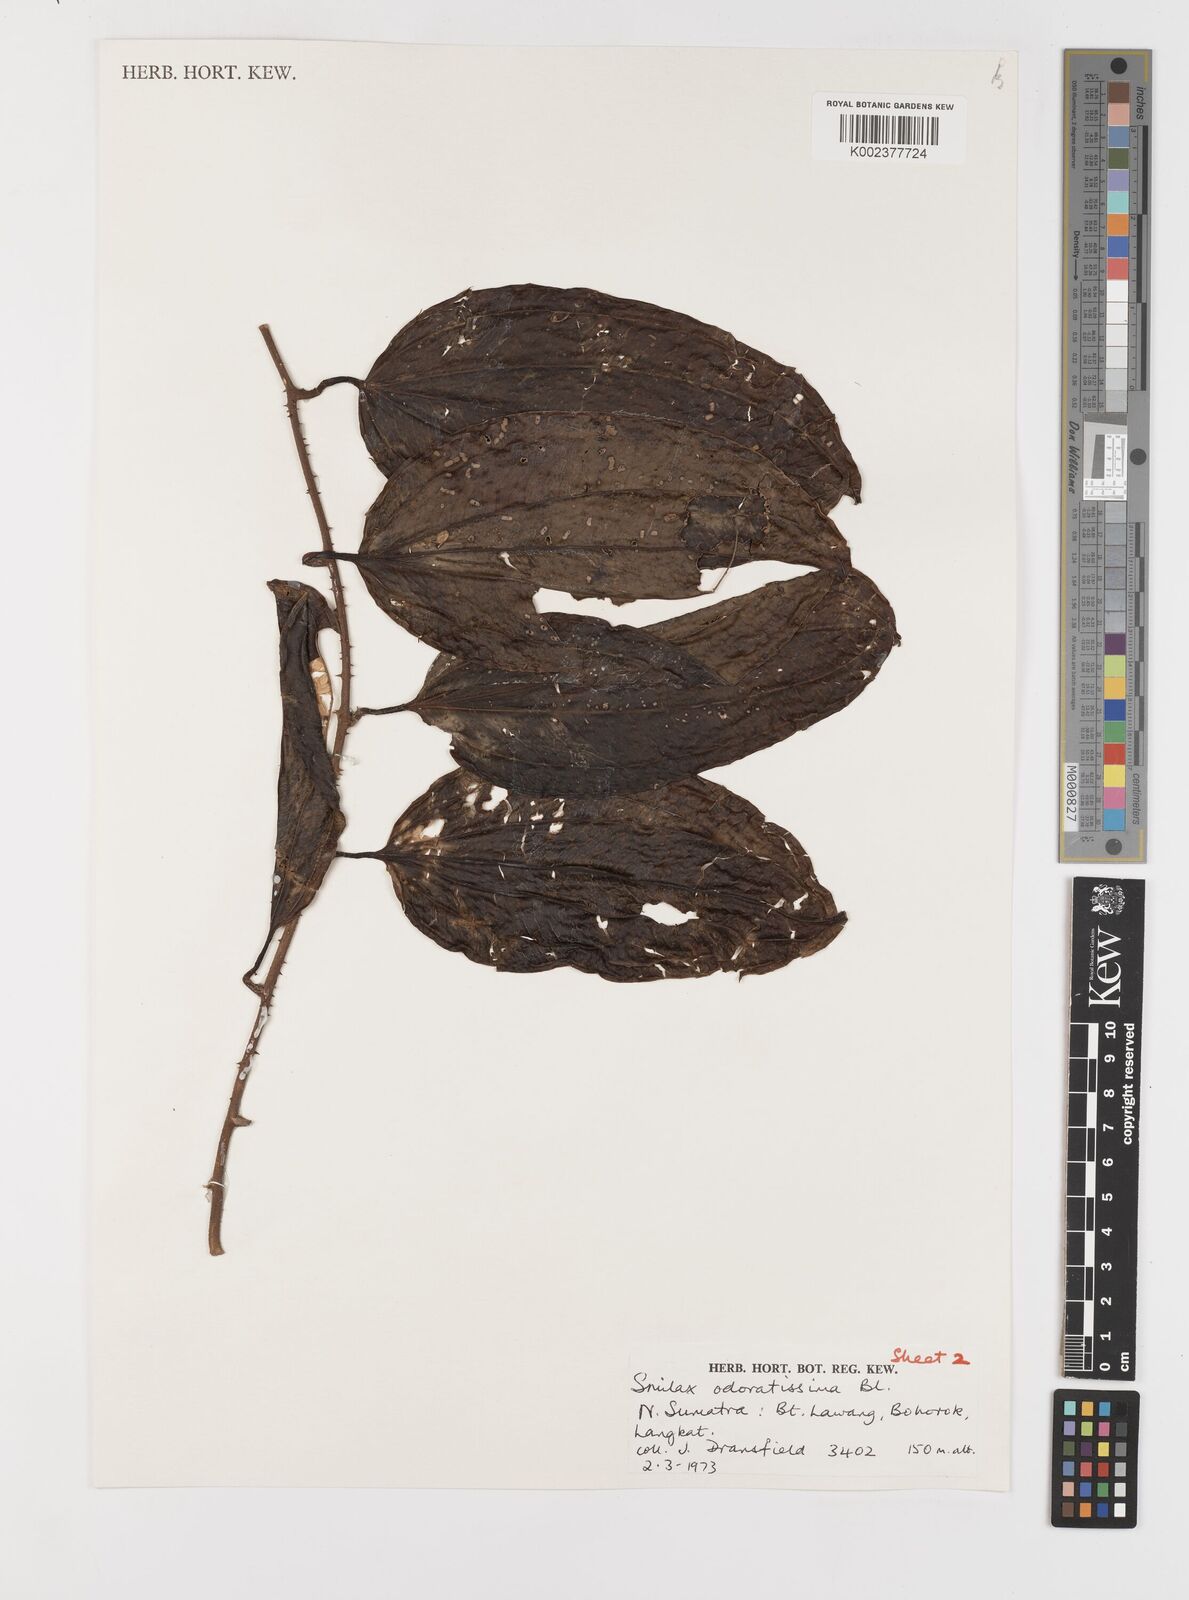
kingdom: Plantae
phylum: Tracheophyta
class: Liliopsida
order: Liliales
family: Smilacaceae
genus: Smilax
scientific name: Smilax odoratissima
